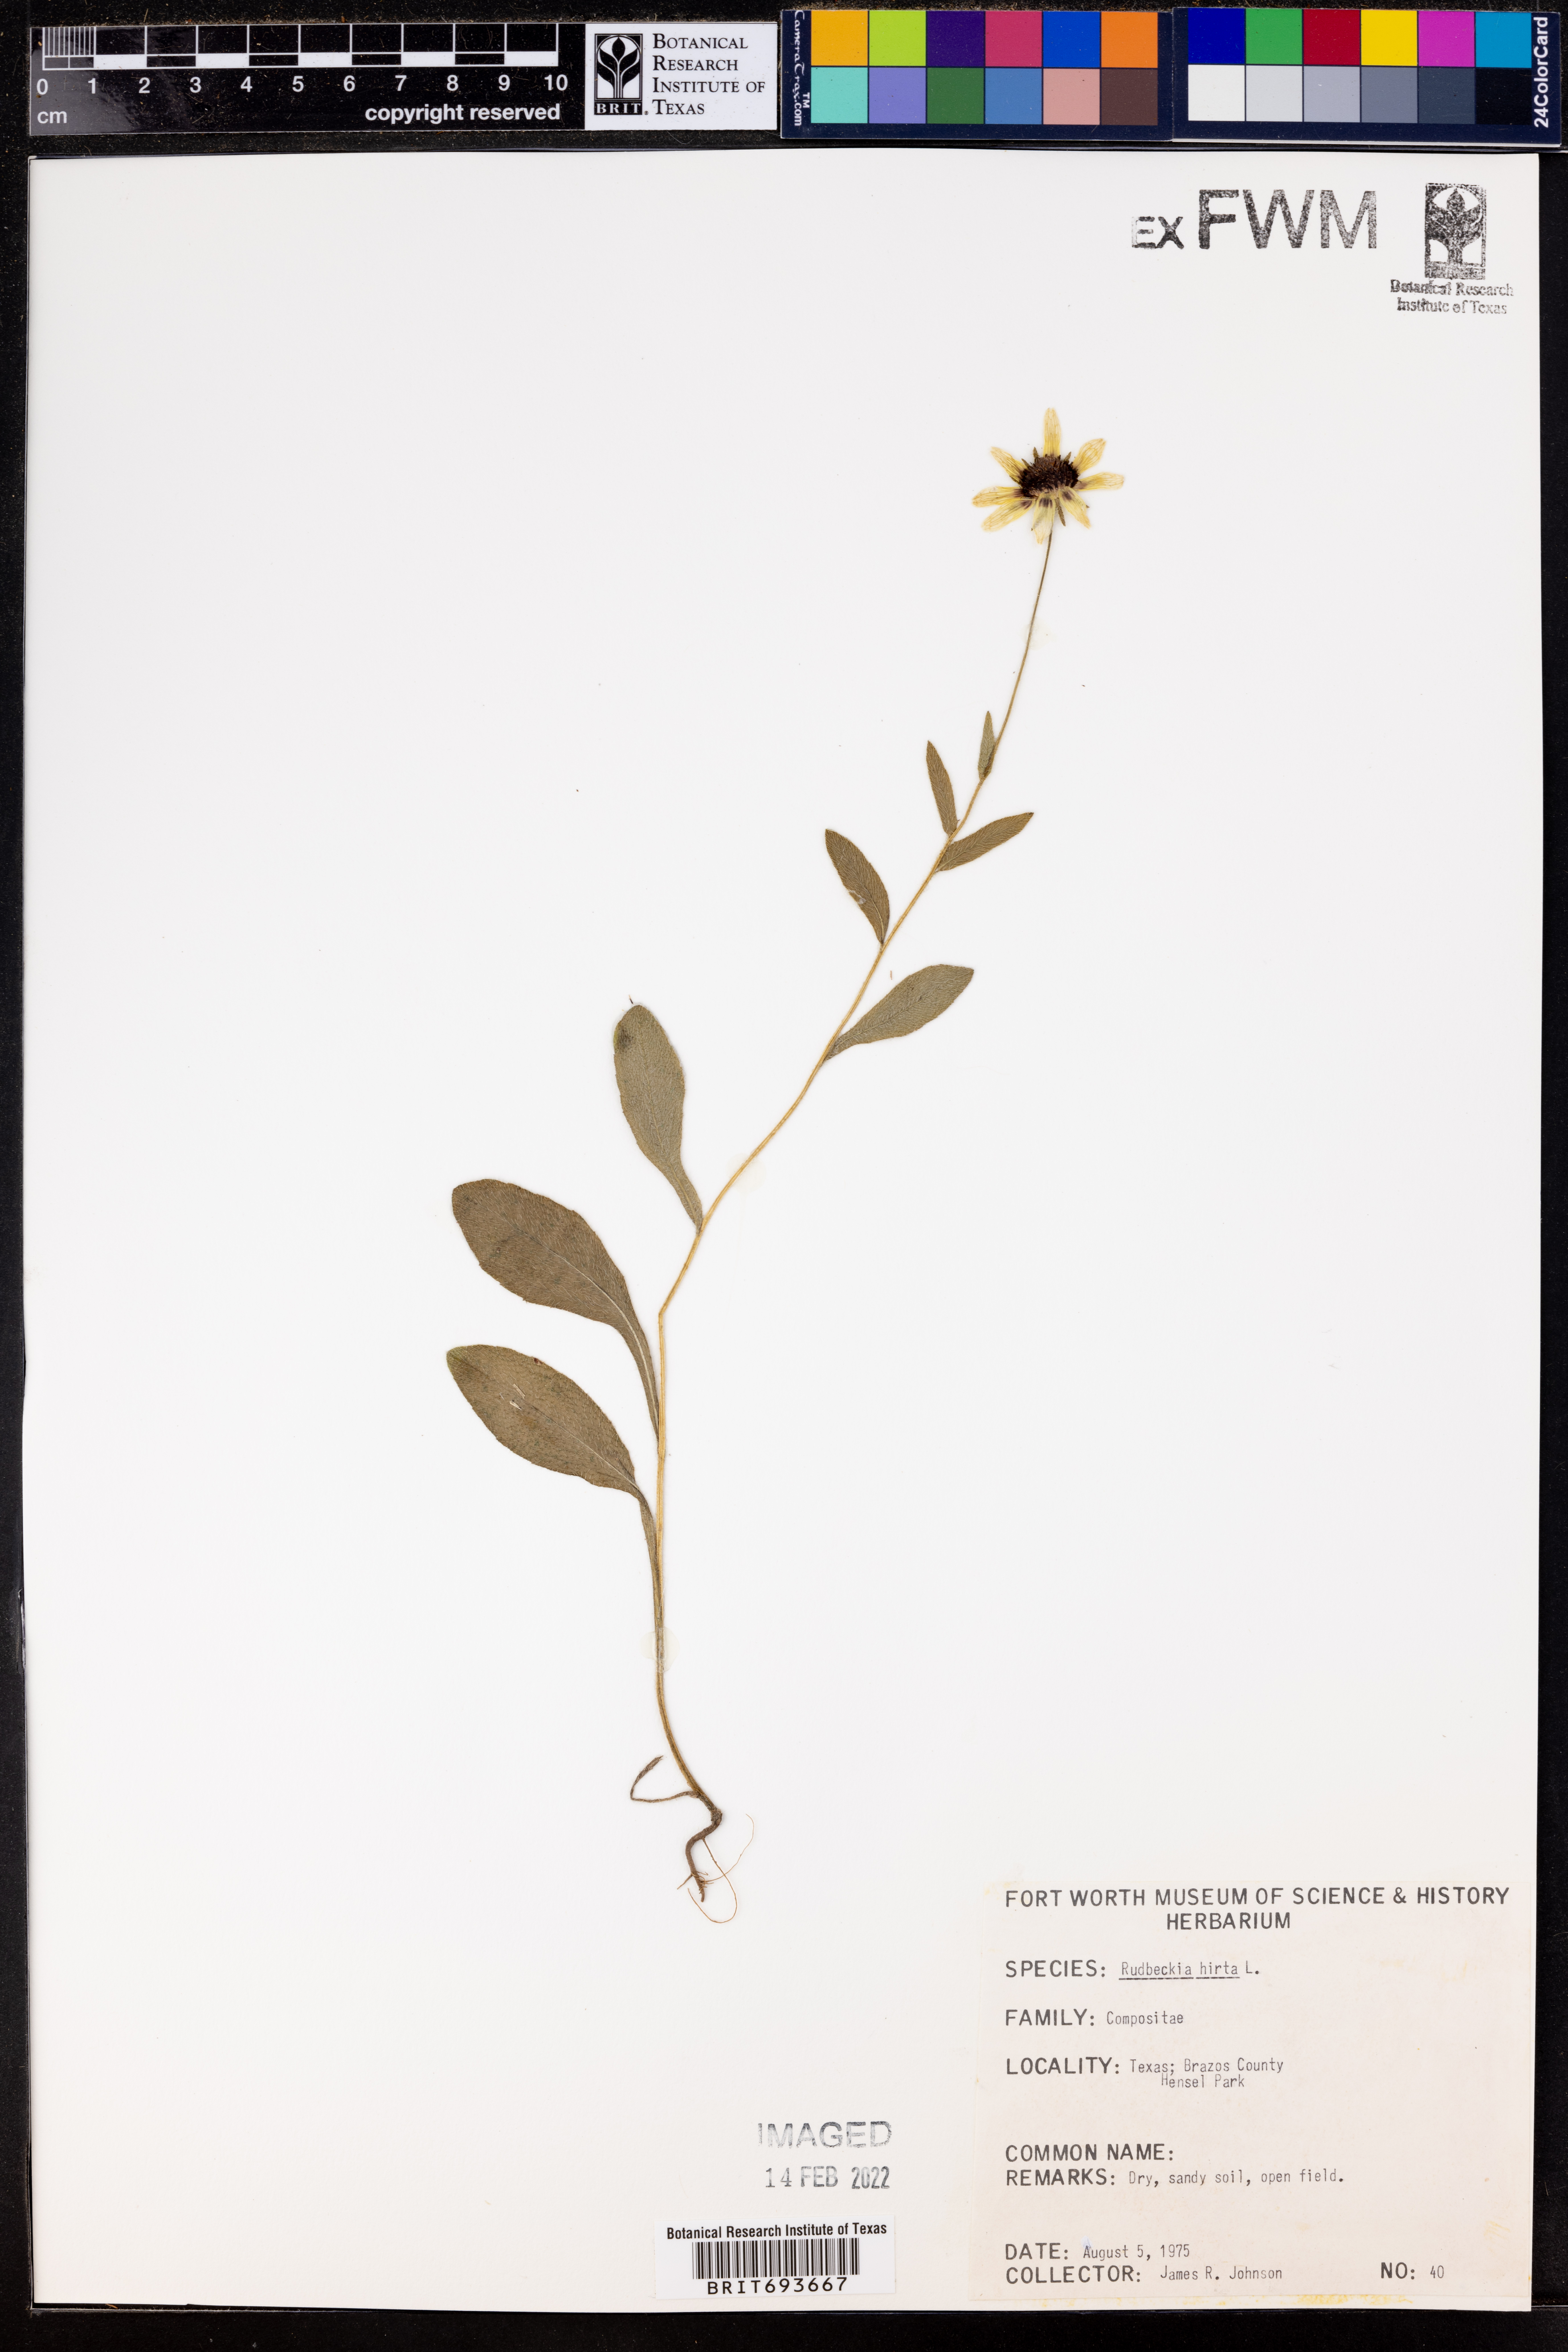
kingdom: Plantae
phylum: Tracheophyta
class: Magnoliopsida
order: Asterales
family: Asteraceae
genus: Rudbeckia
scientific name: Rudbeckia hirta
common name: Black-eyed-susan
